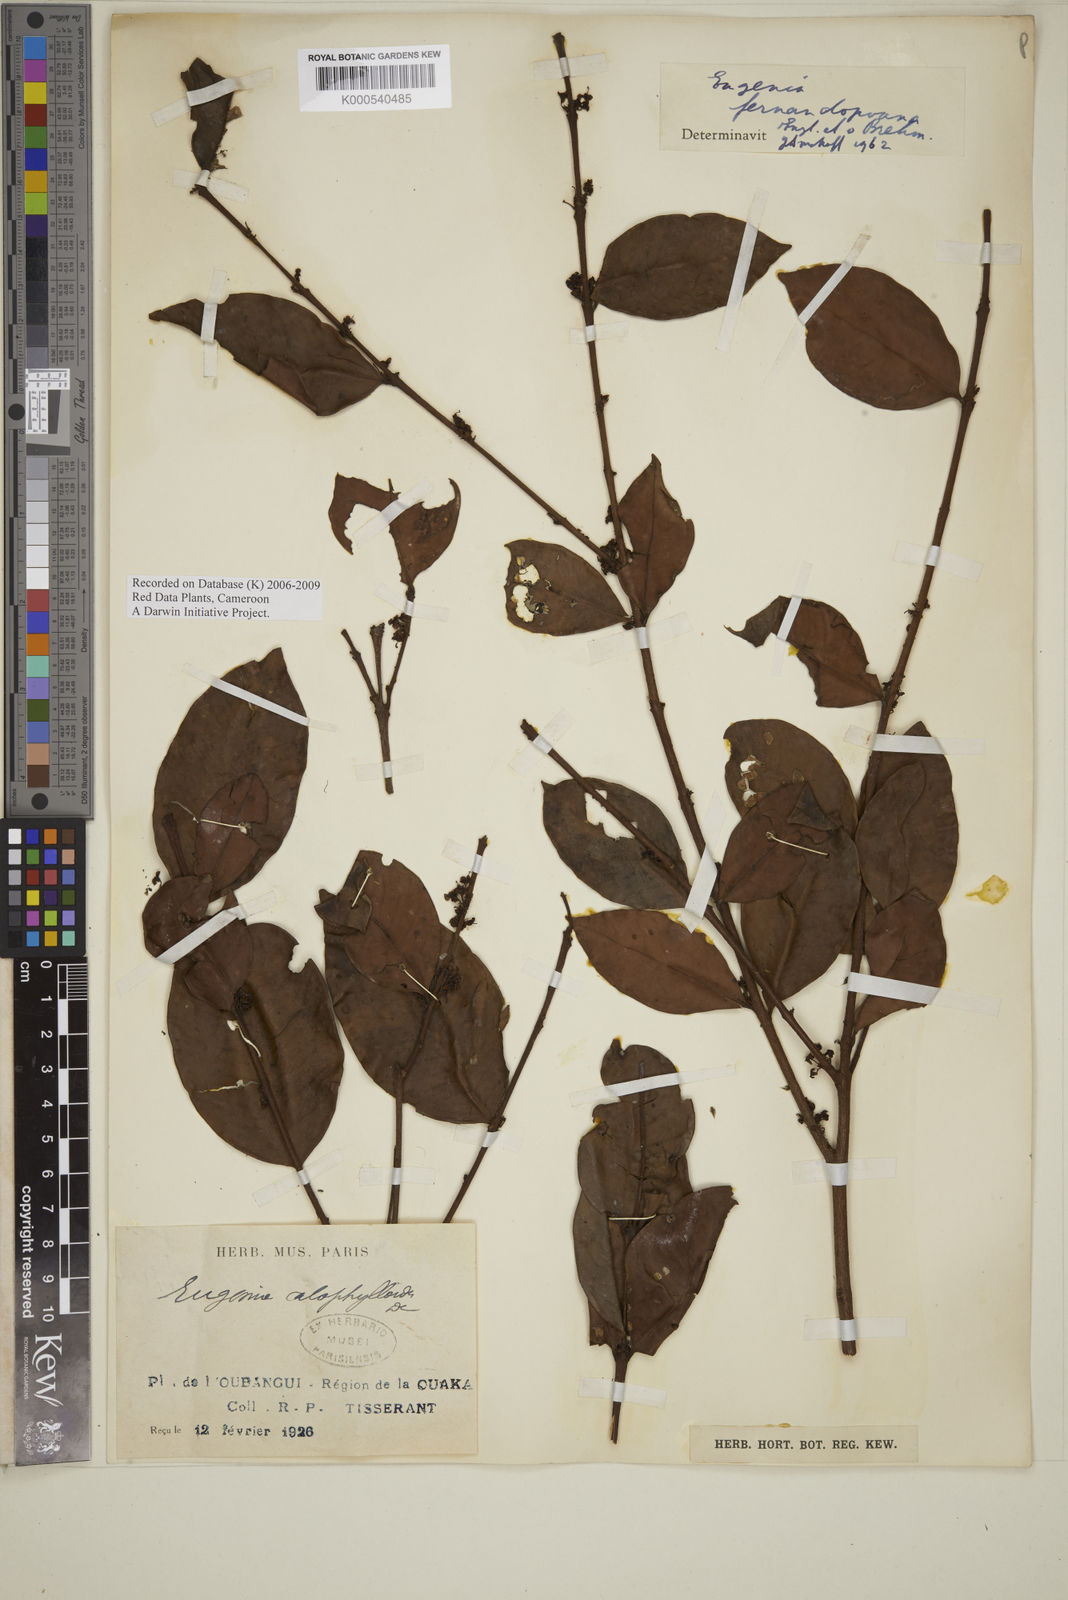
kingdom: Plantae
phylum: Tracheophyta
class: Magnoliopsida
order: Myrtales
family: Myrtaceae
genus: Eugenia
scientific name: Eugenia fernandopoana
